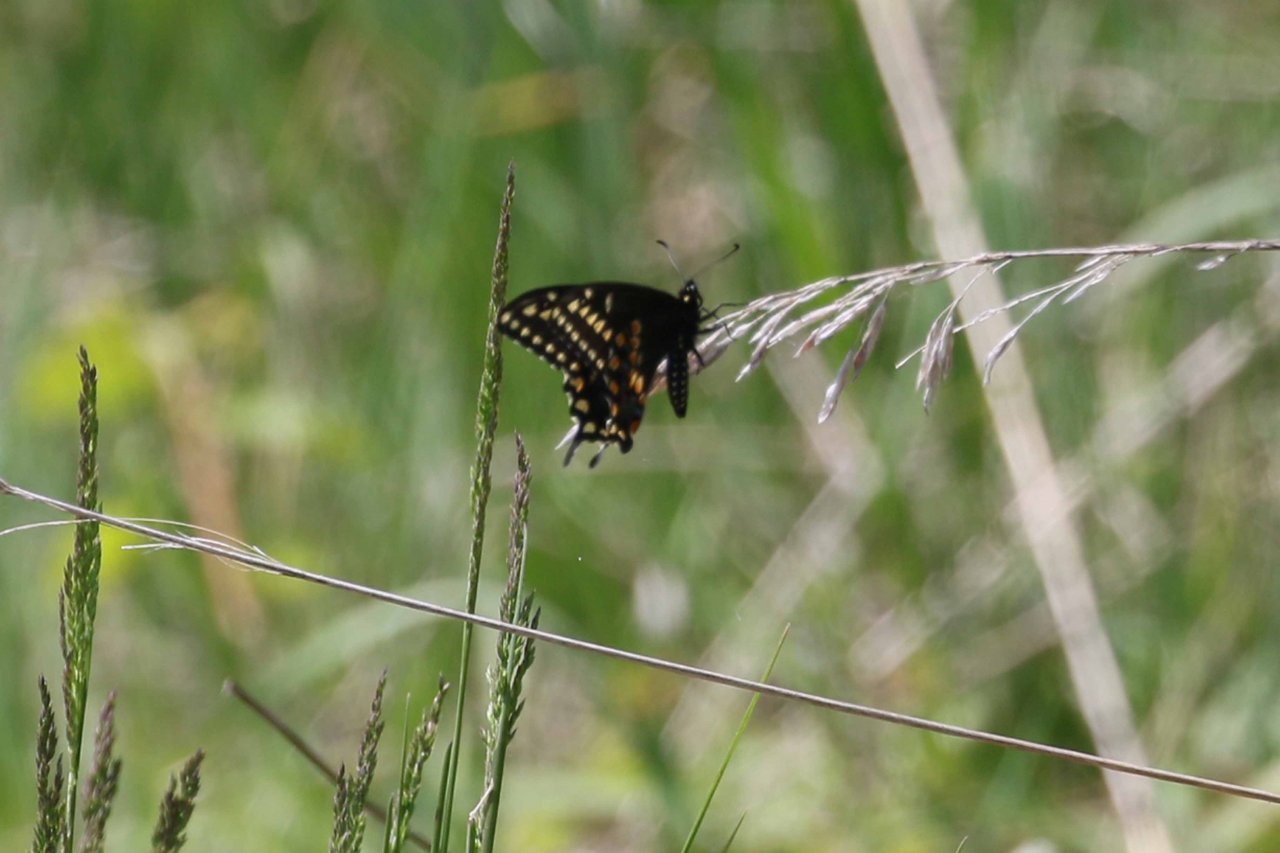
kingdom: Animalia
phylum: Arthropoda
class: Insecta
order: Lepidoptera
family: Papilionidae
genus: Papilio
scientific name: Papilio polyxenes
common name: Black Swallowtail
